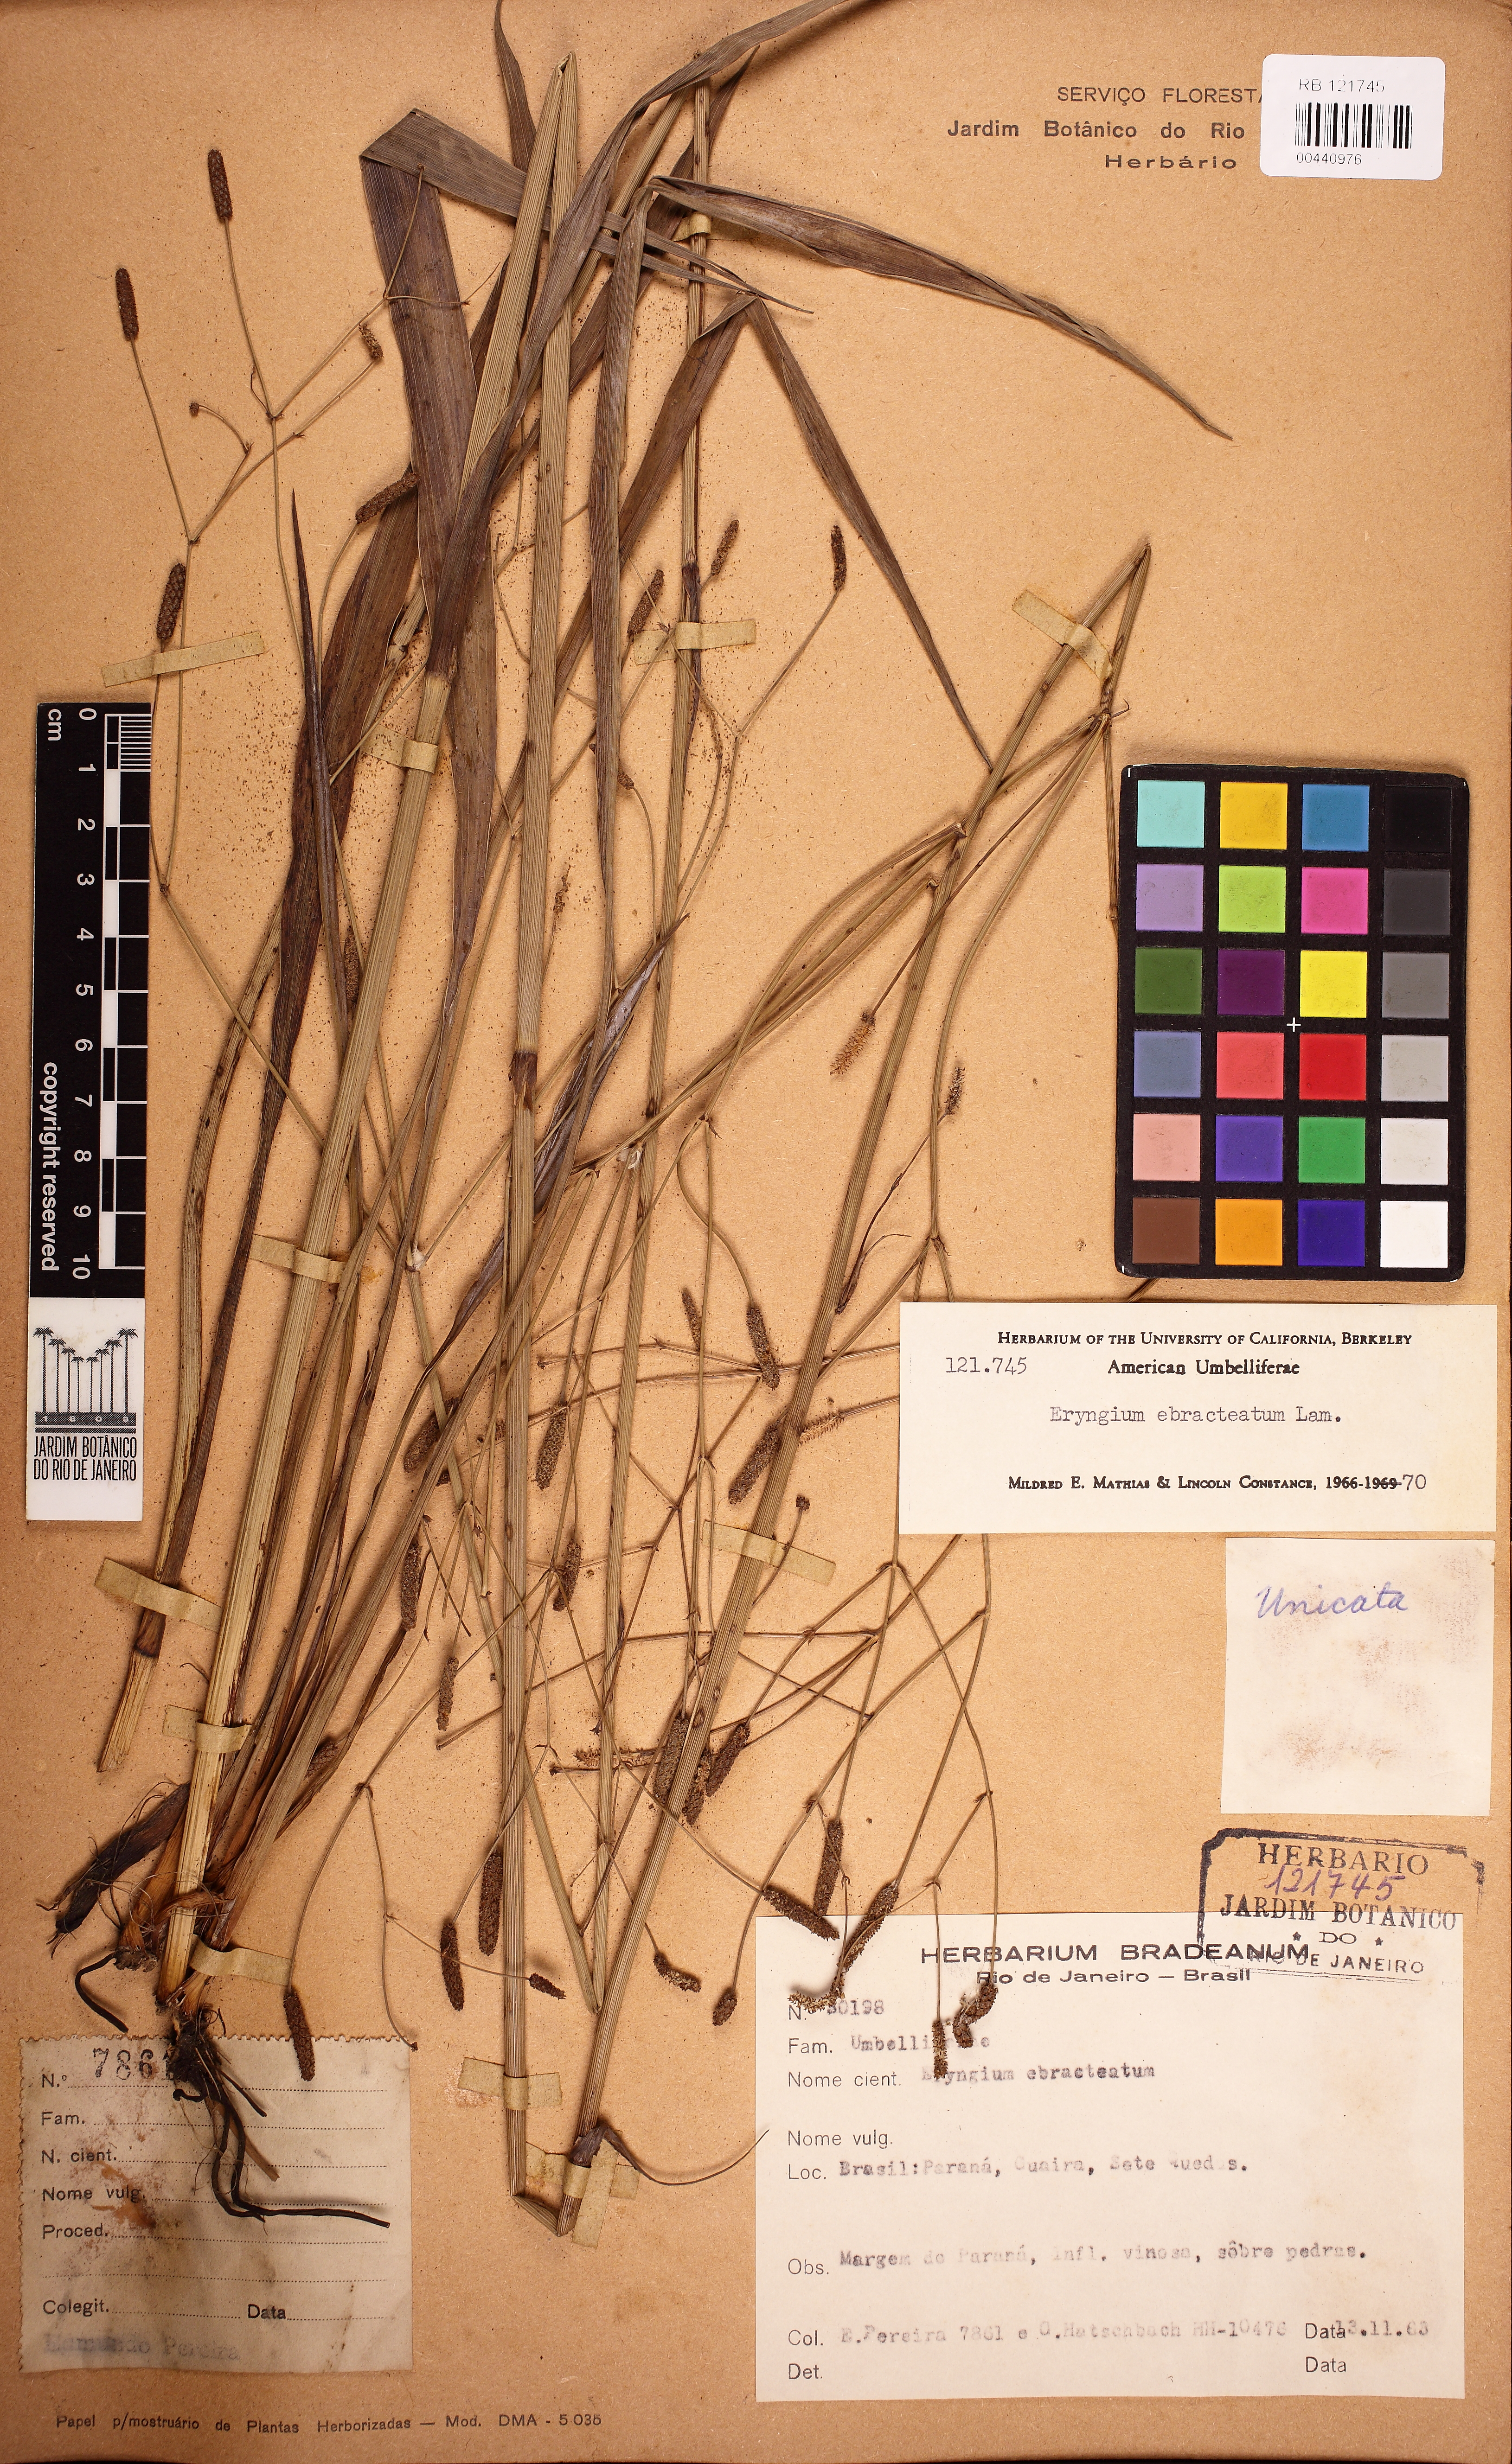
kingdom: Plantae
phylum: Tracheophyta
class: Magnoliopsida
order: Apiales
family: Apiaceae
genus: Eryngium
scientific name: Eryngium ebracteatum
